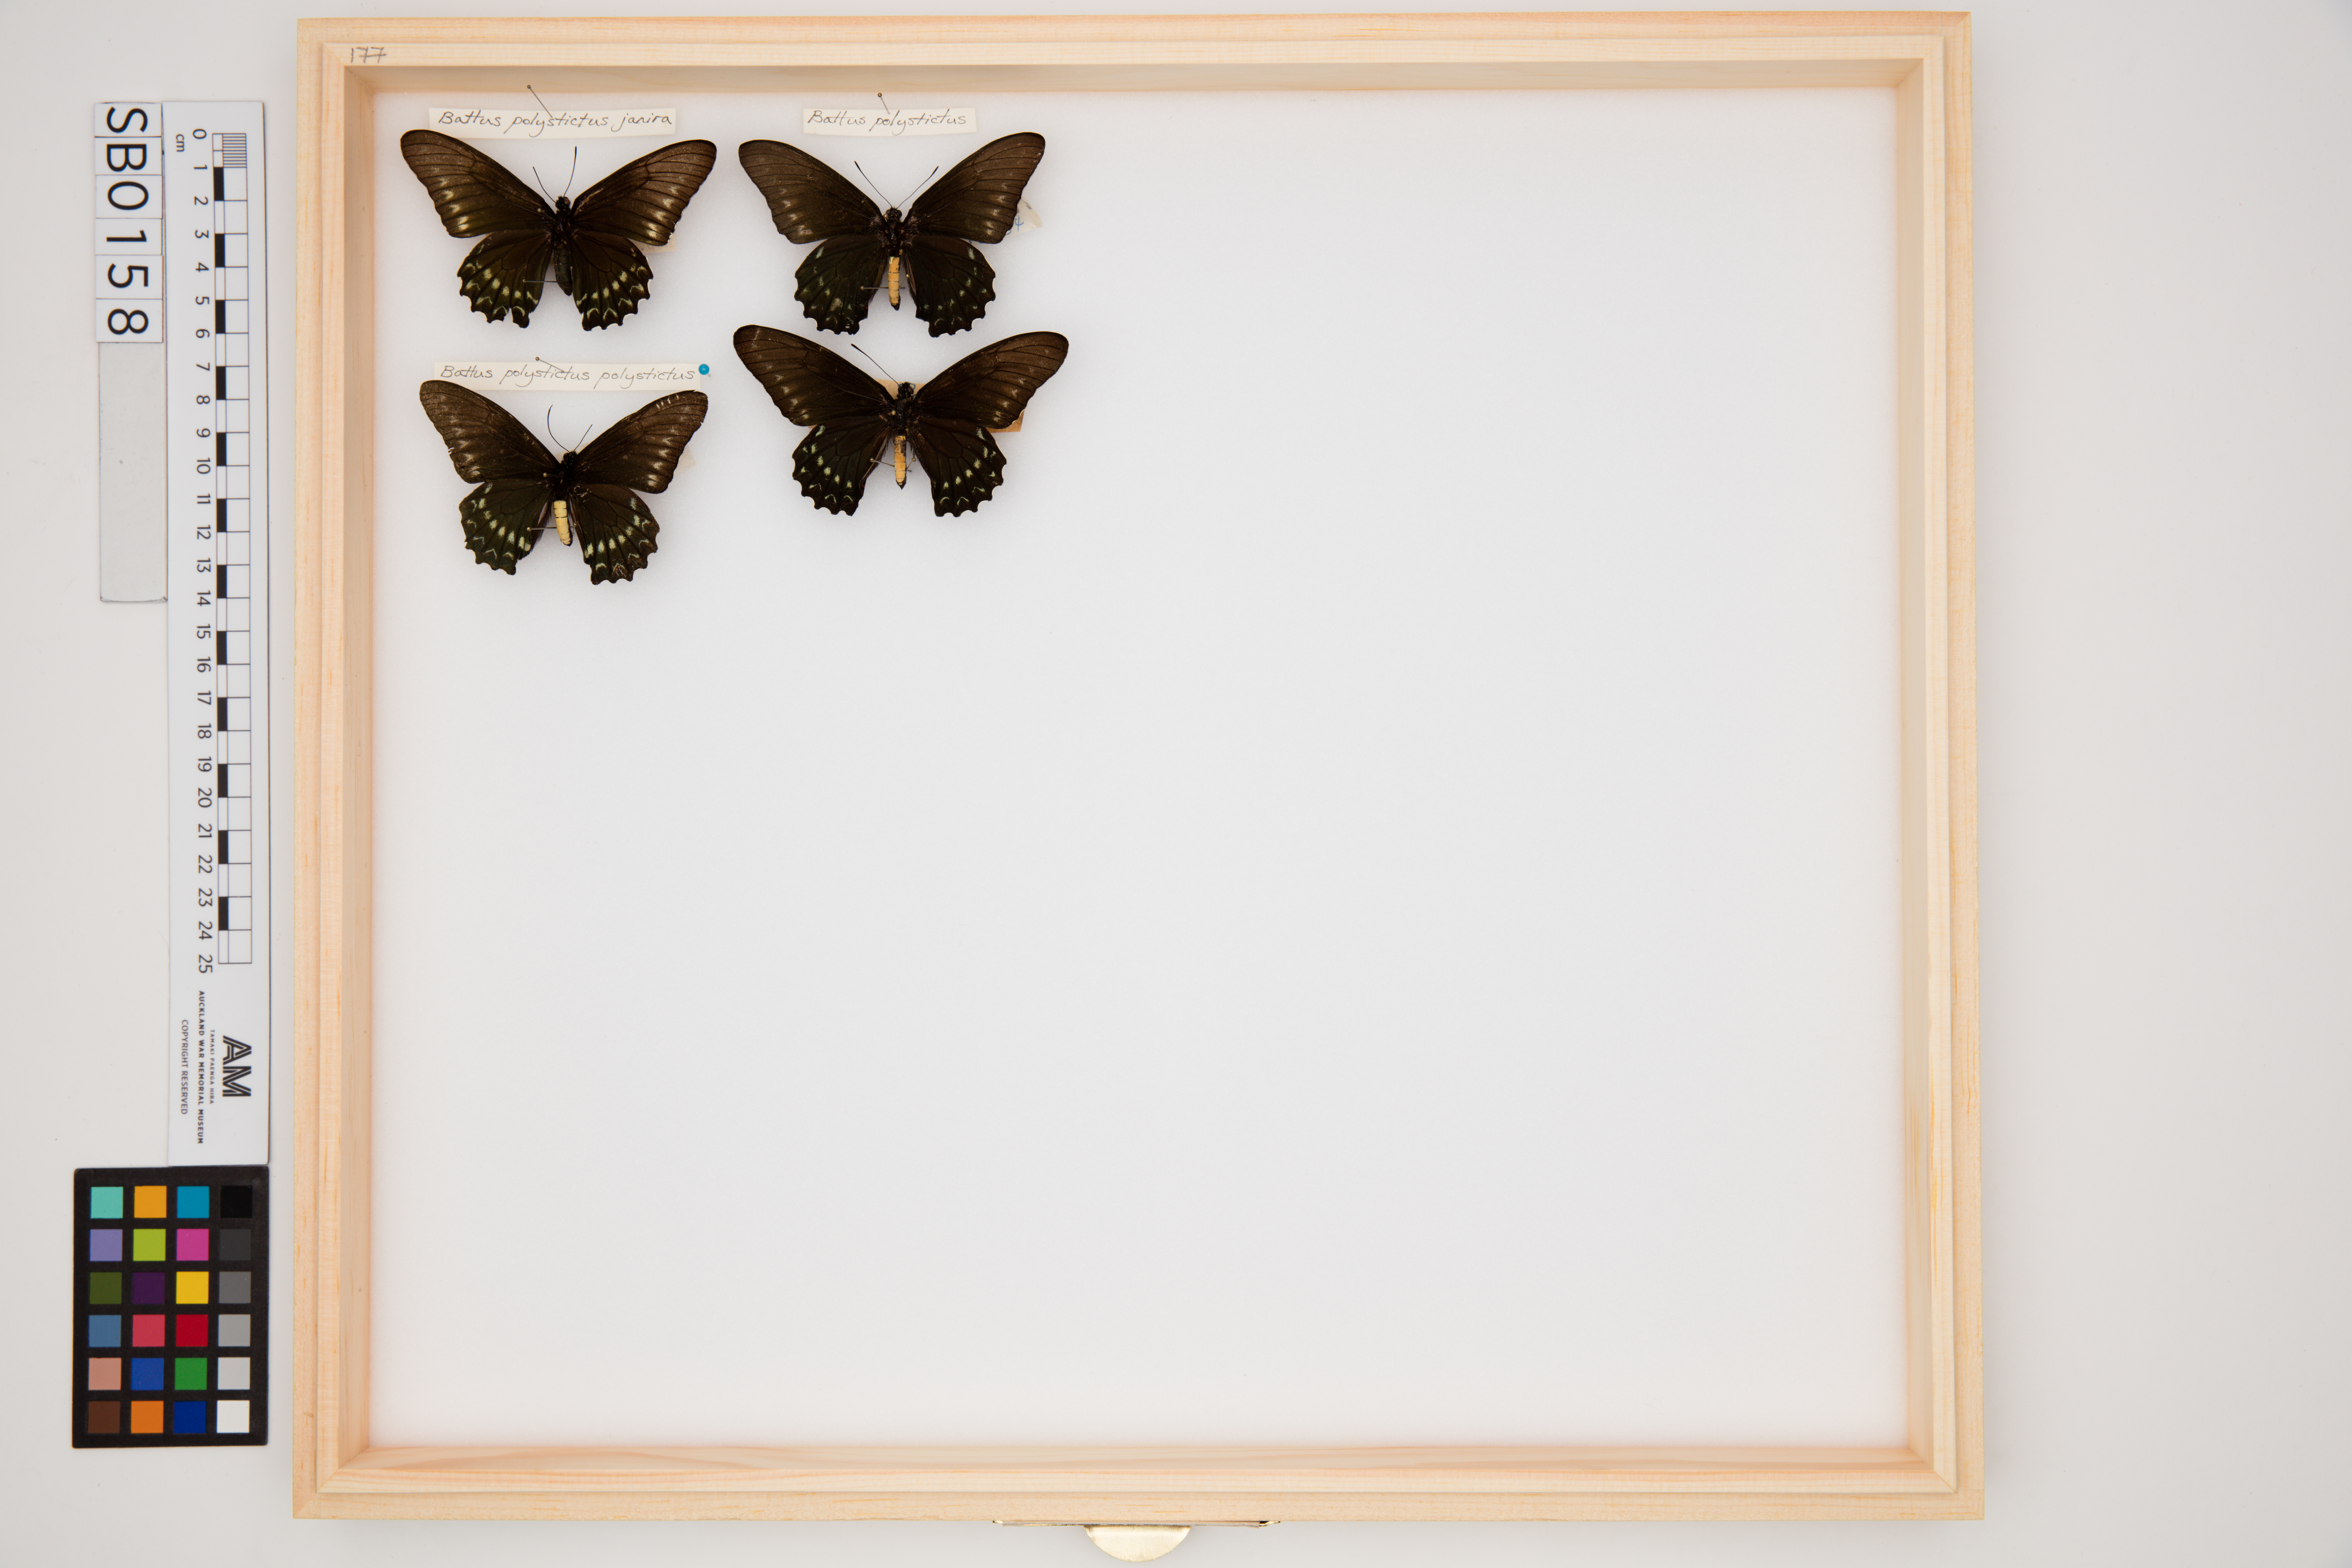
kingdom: Animalia
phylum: Arthropoda
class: Insecta
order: Lepidoptera
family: Papilionidae
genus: Battus
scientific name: Battus polystictus
